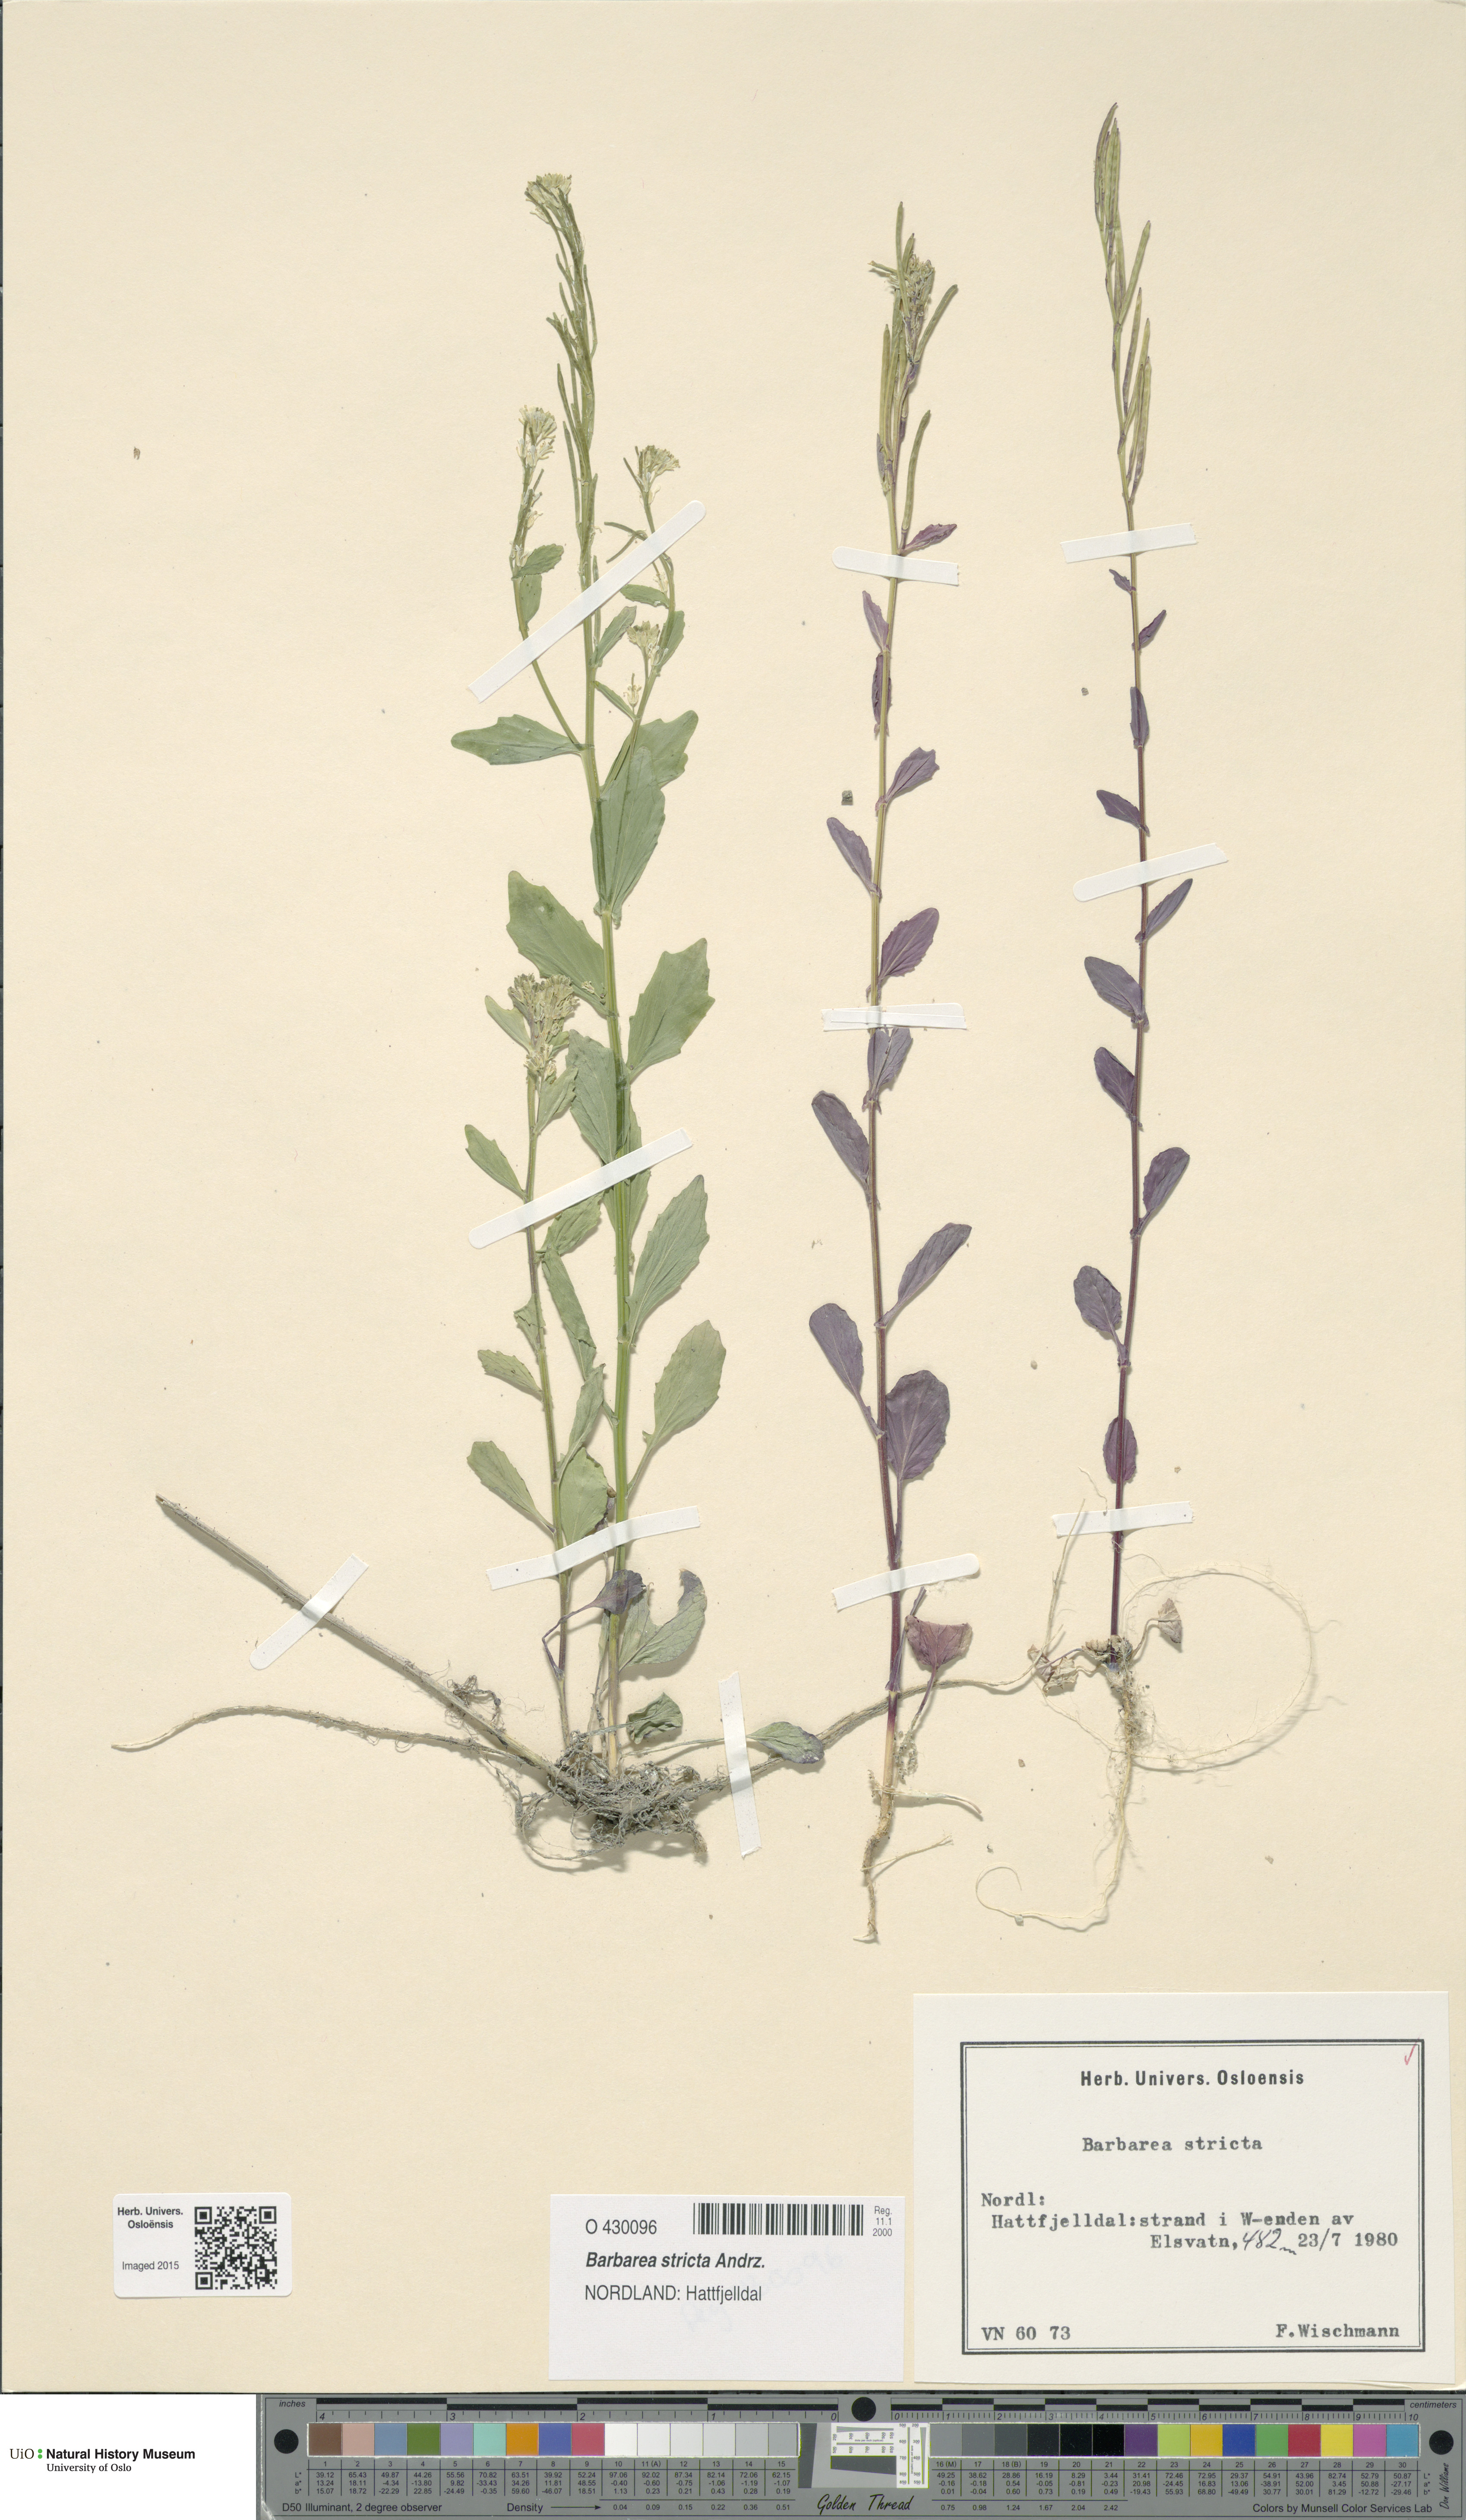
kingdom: Plantae
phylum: Tracheophyta
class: Magnoliopsida
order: Brassicales
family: Brassicaceae
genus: Barbarea
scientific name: Barbarea stricta
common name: Small-flowered winter-cress
